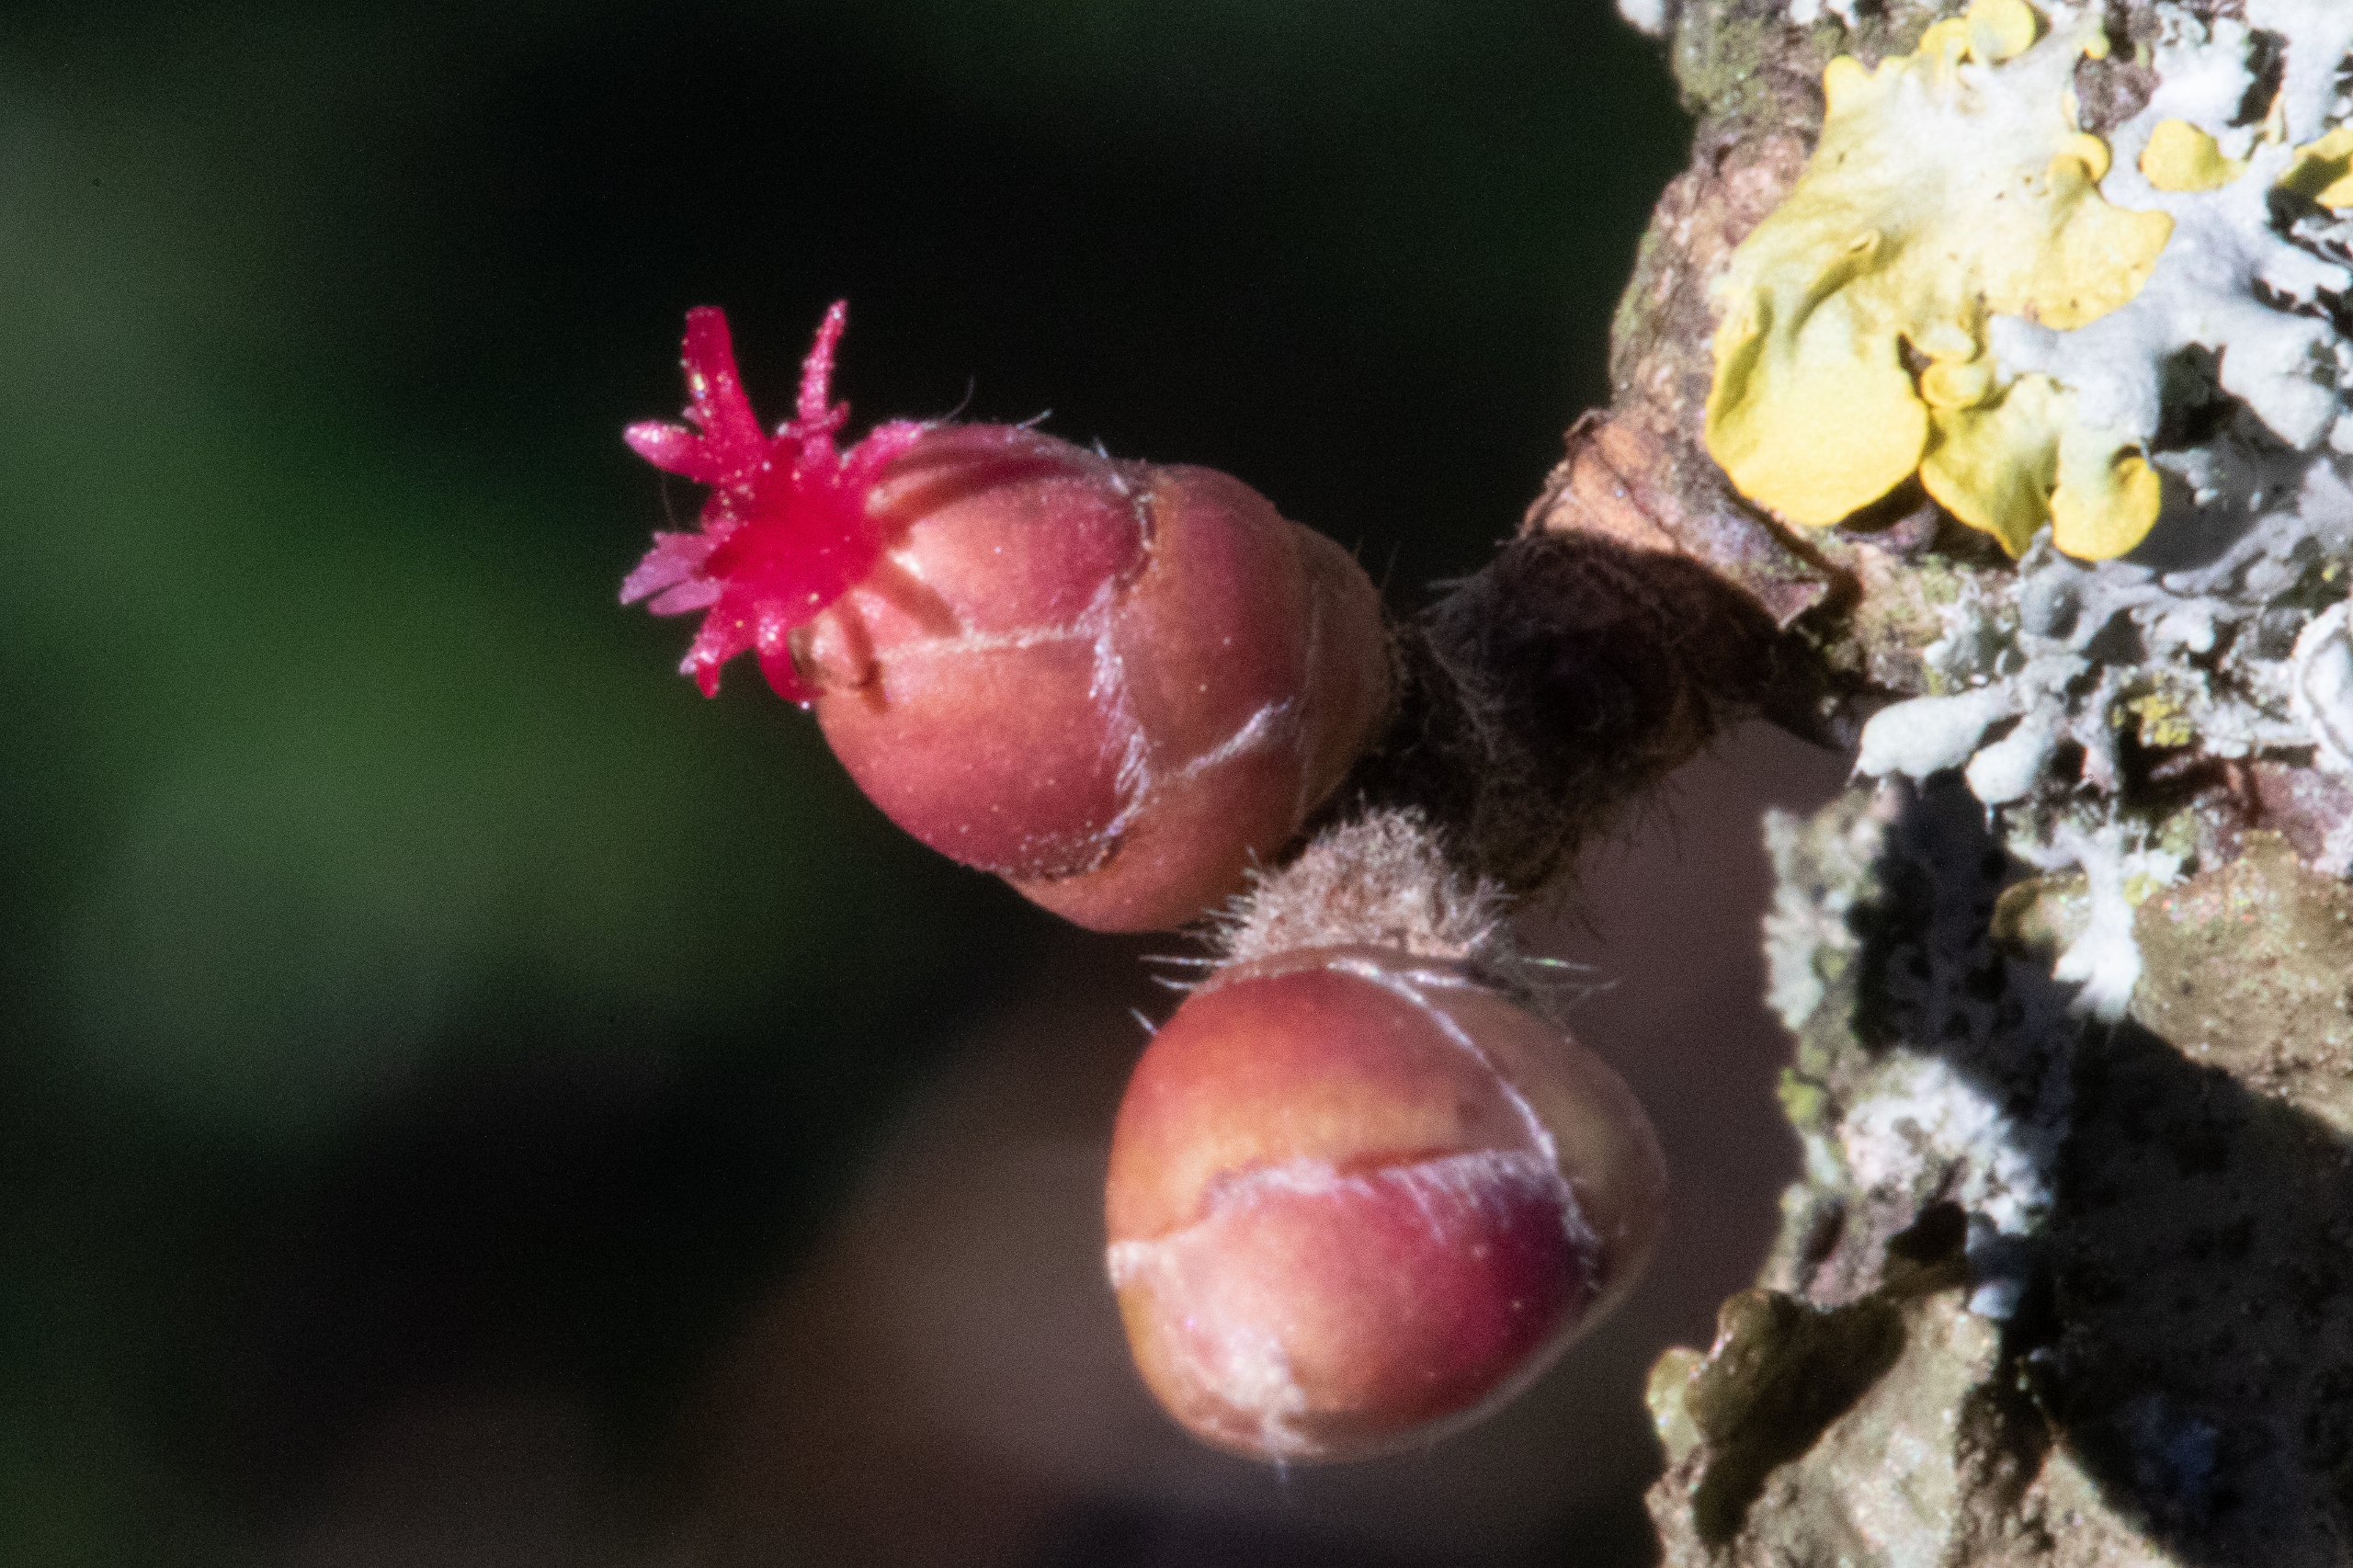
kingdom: Plantae
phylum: Tracheophyta
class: Magnoliopsida
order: Fagales
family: Betulaceae
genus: Corylus
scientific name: Corylus avellana
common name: Hassel
